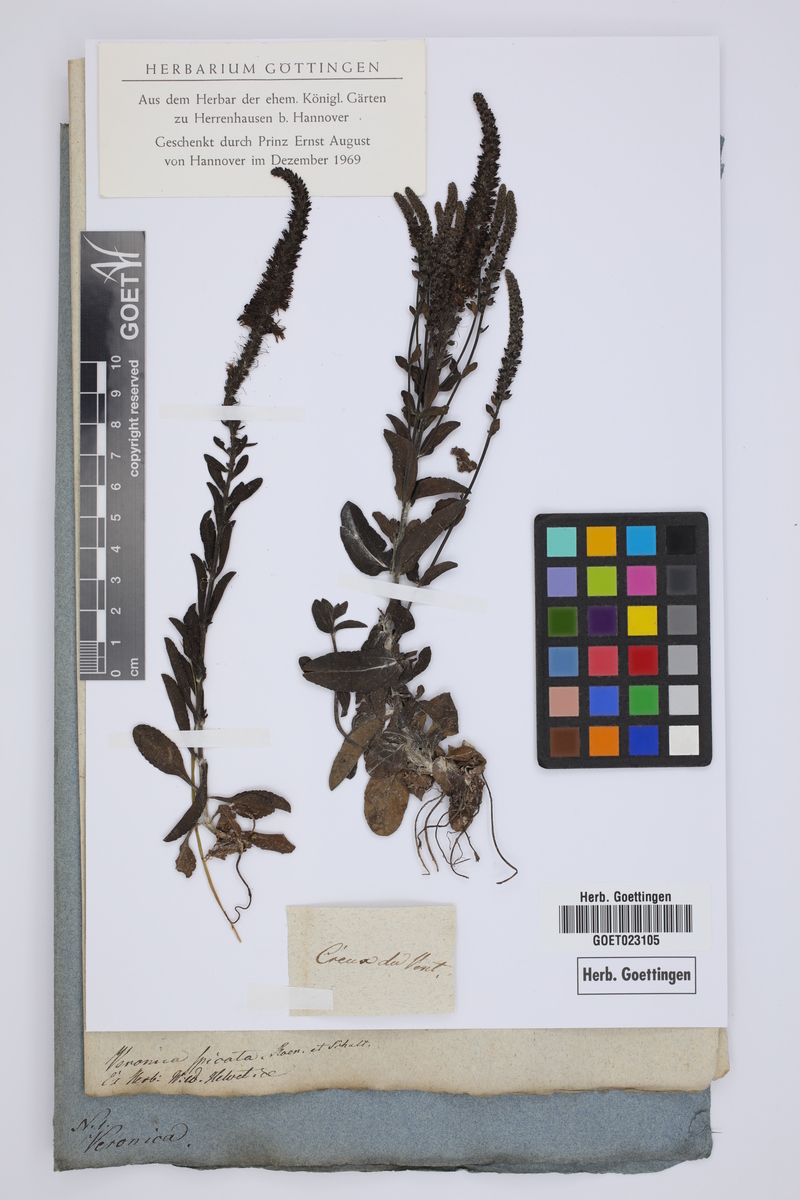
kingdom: Plantae
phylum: Tracheophyta
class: Magnoliopsida
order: Lamiales
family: Plantaginaceae
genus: Veronica
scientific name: Veronica spicata
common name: Spiked speedwell
